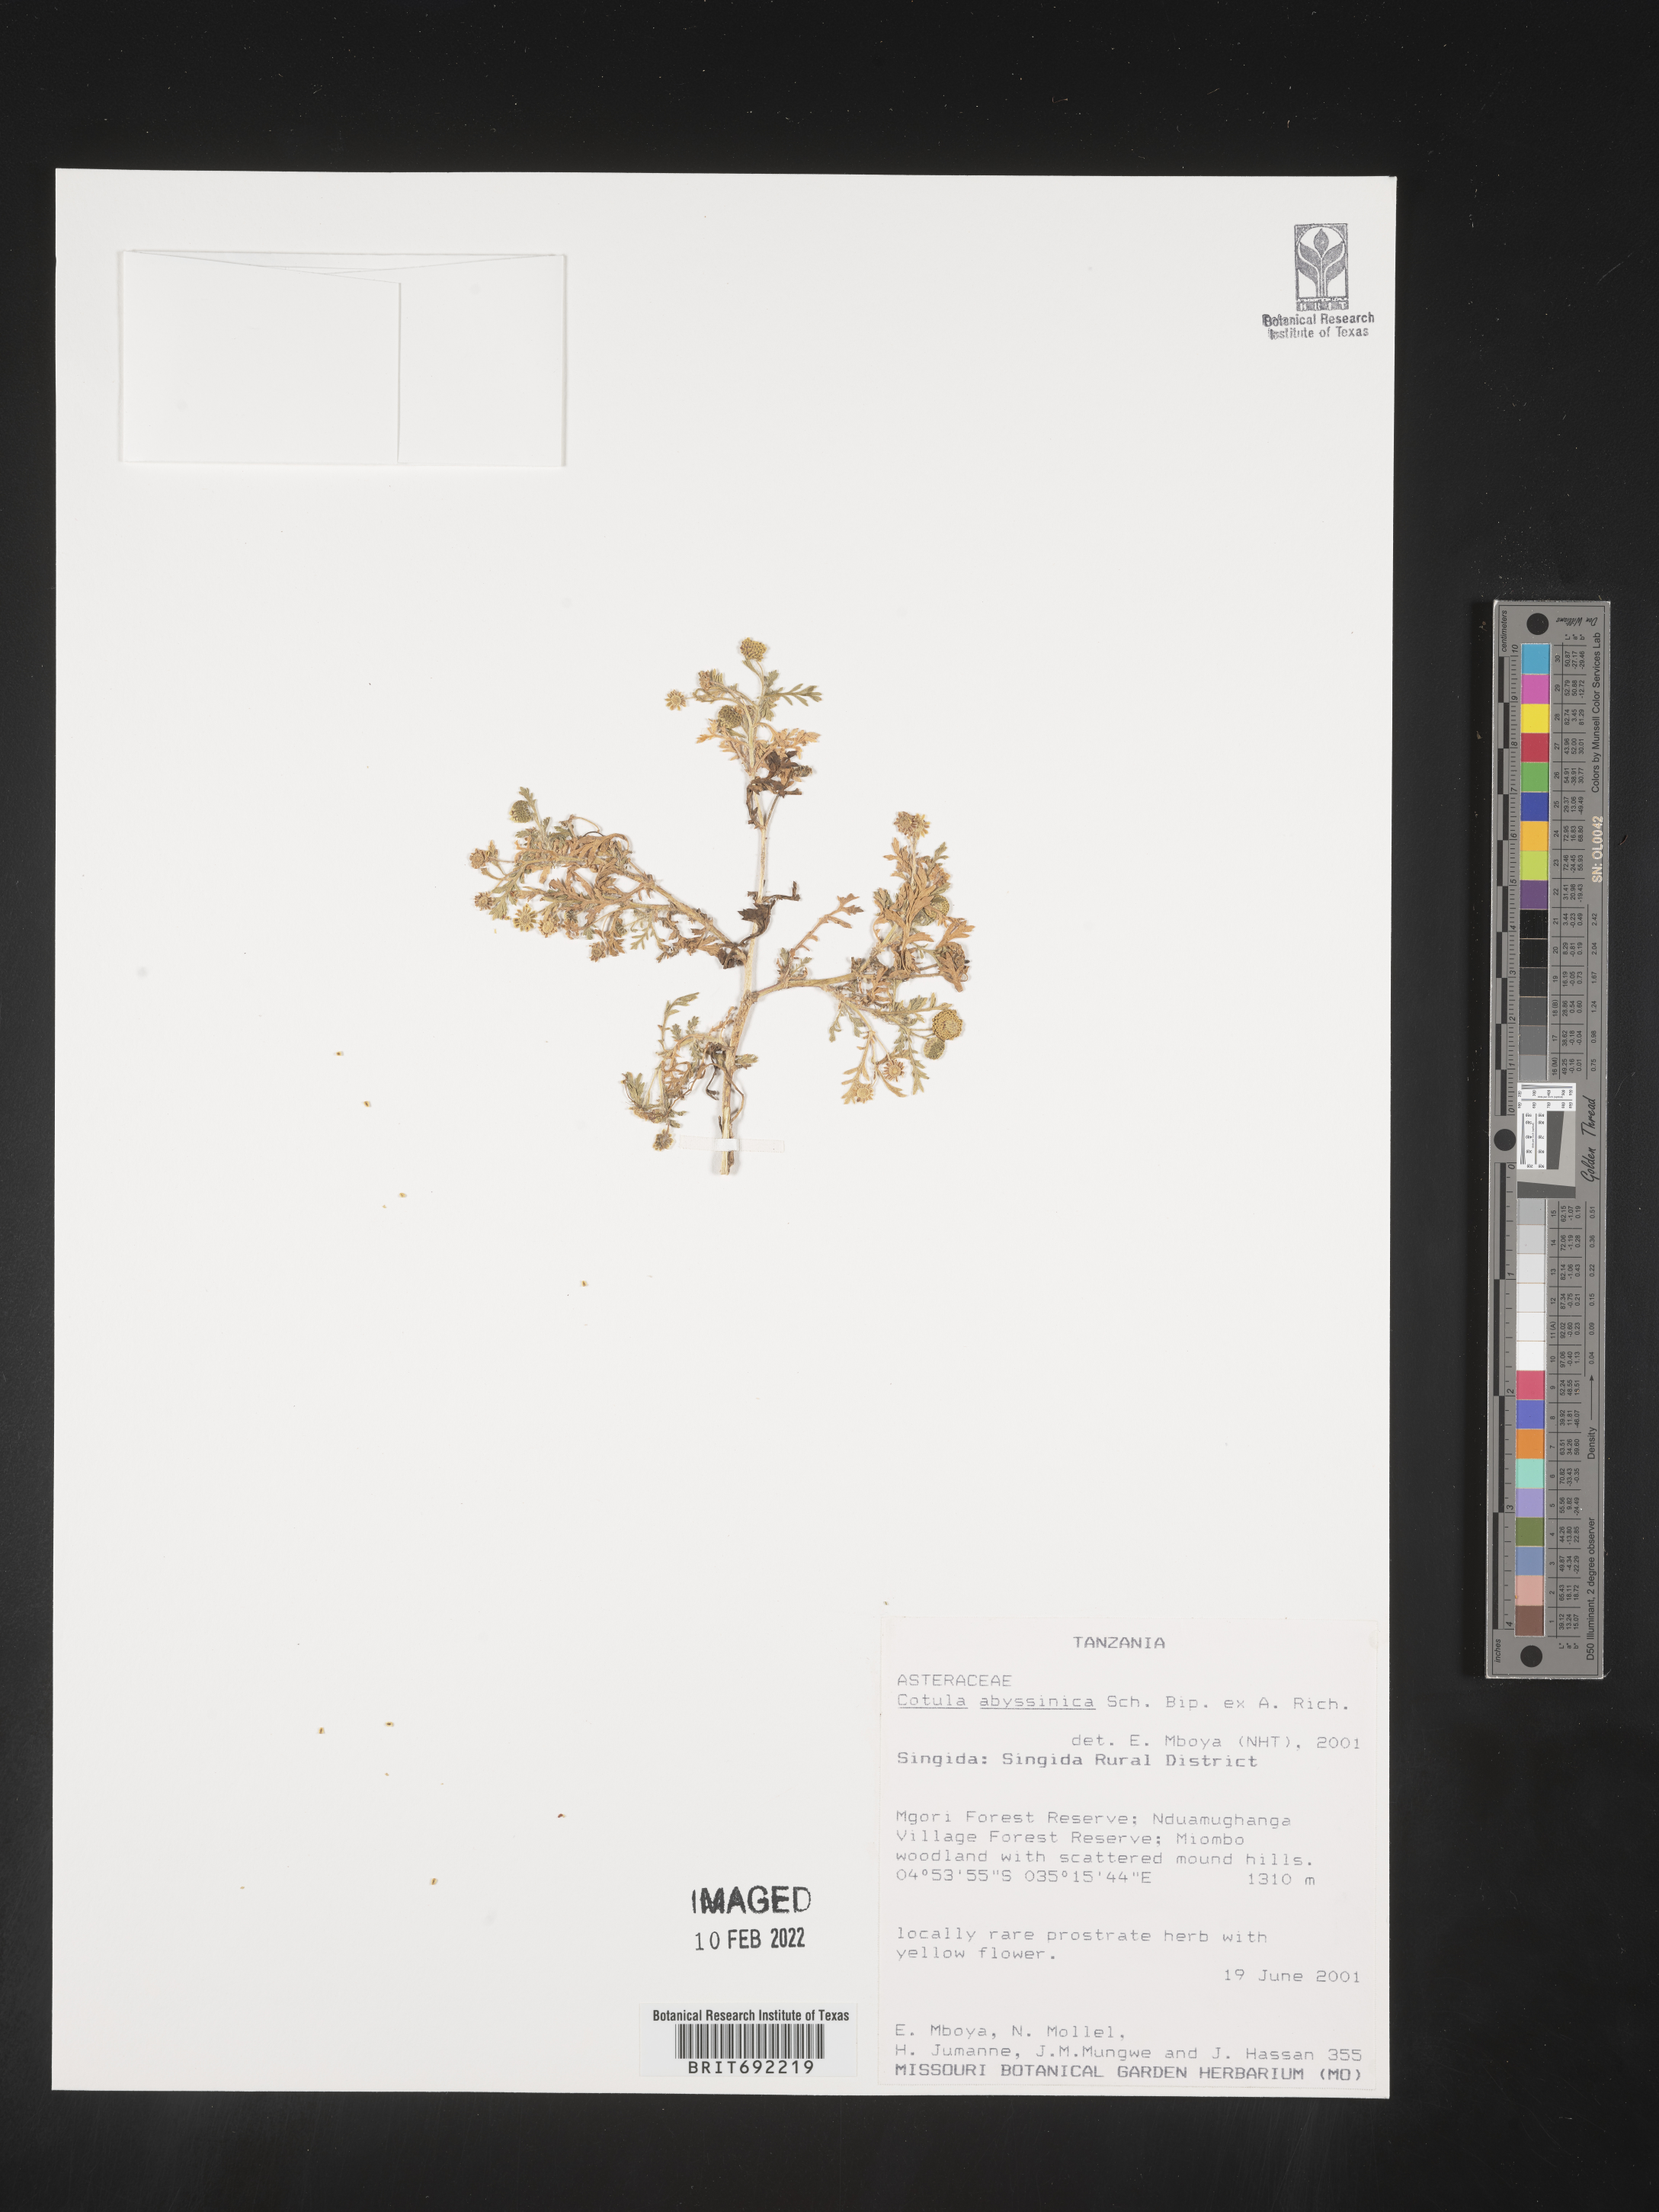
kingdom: Plantae
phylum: Tracheophyta
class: Magnoliopsida
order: Asterales
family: Asteraceae
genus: Cotula
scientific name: Cotula
